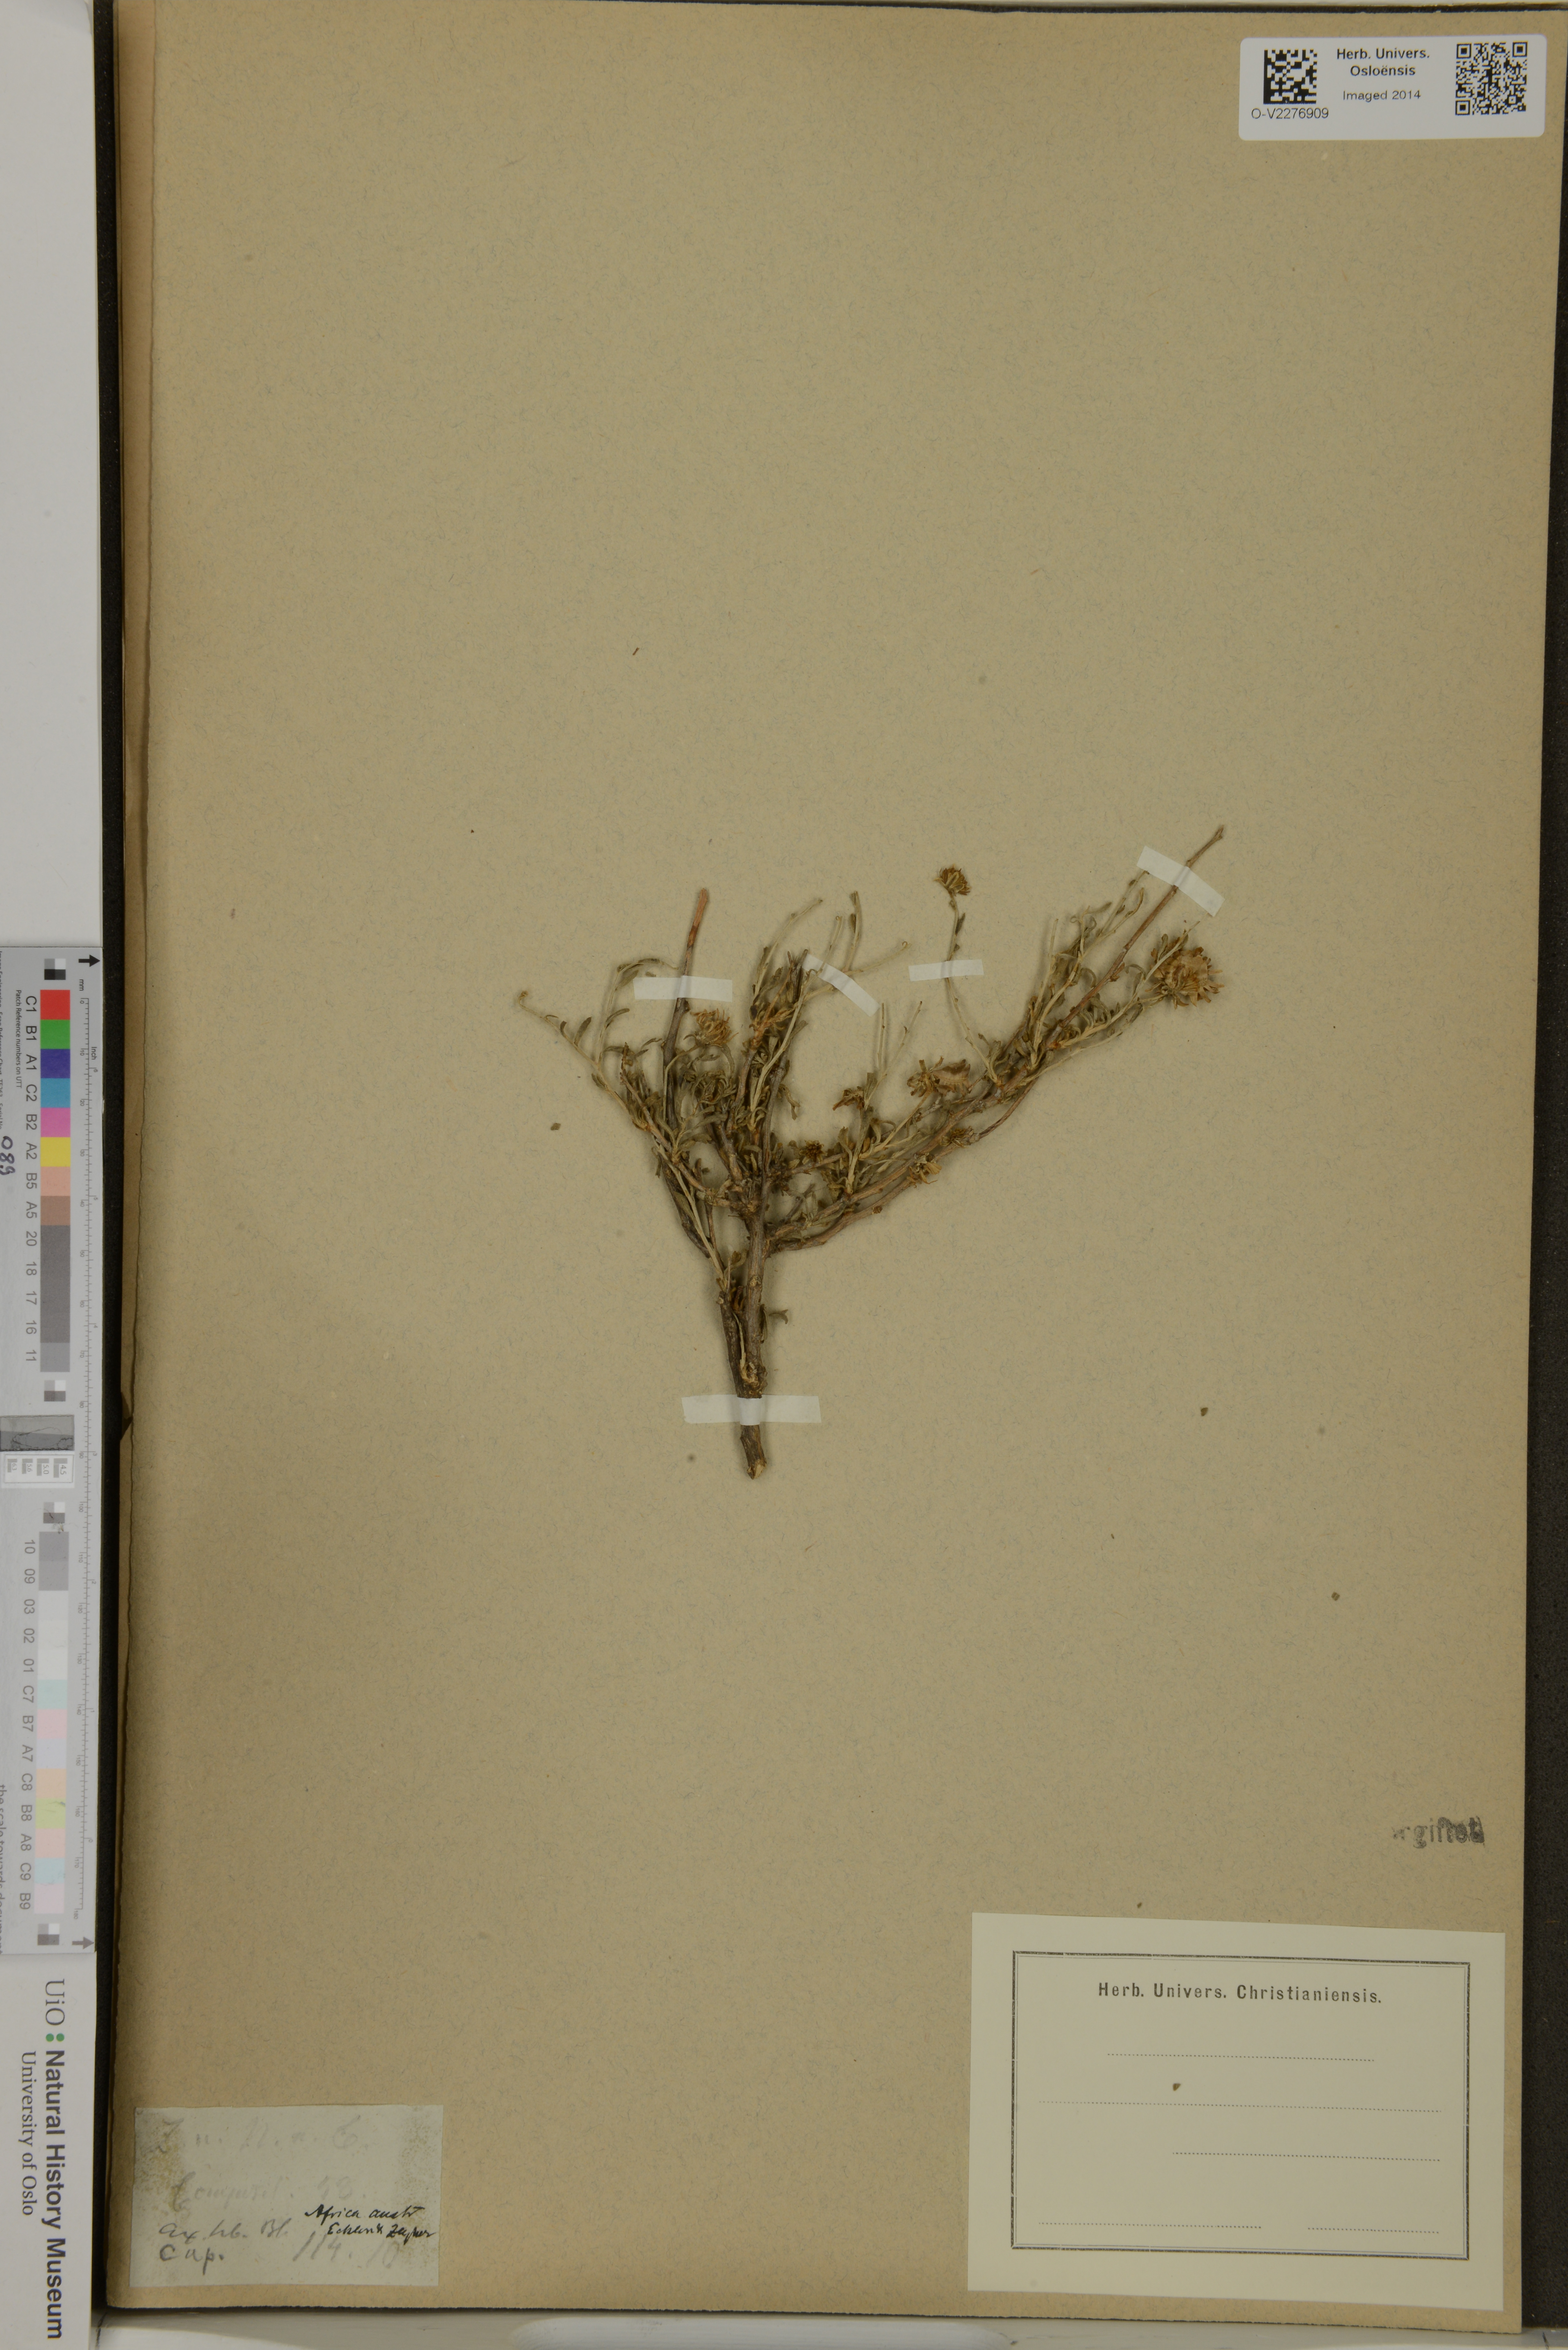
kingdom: Plantae
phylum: Tracheophyta
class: Magnoliopsida
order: Asterales
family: Asteraceae
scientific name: Asteraceae
